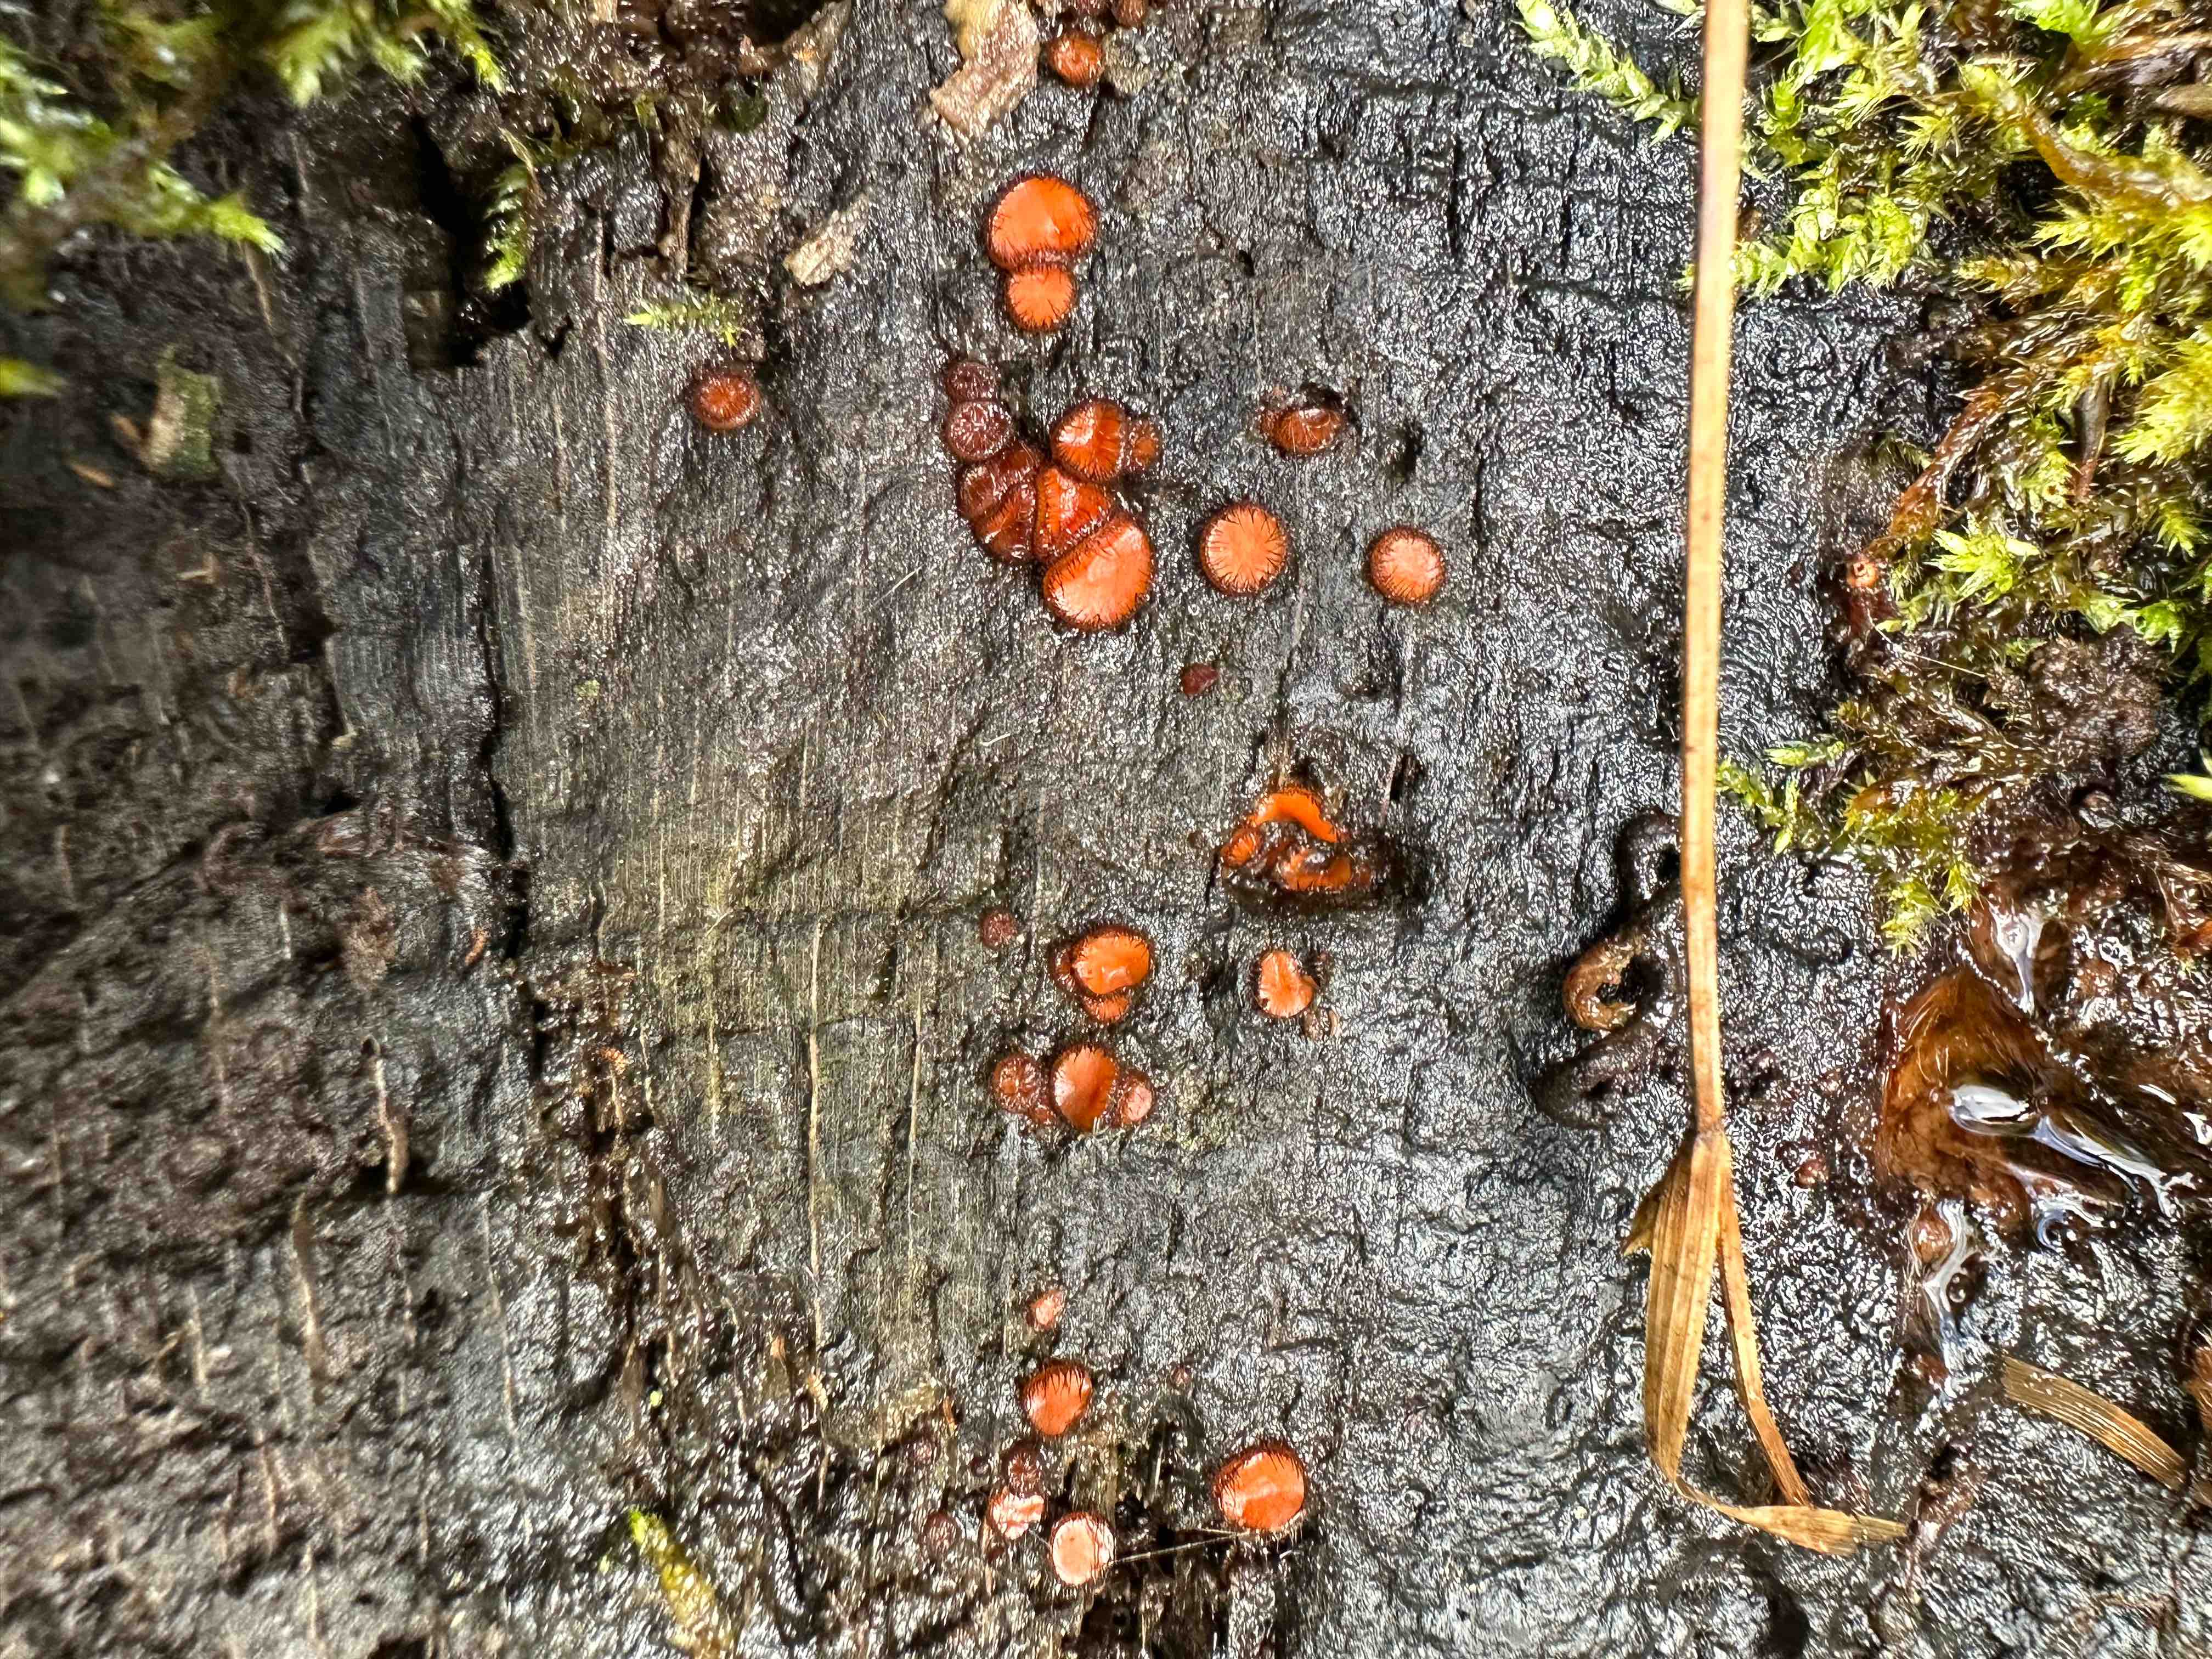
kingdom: Fungi
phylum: Ascomycota
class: Pezizomycetes
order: Pezizales
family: Pyronemataceae
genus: Scutellinia
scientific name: Scutellinia scutellata
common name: frynset skjoldbæger
